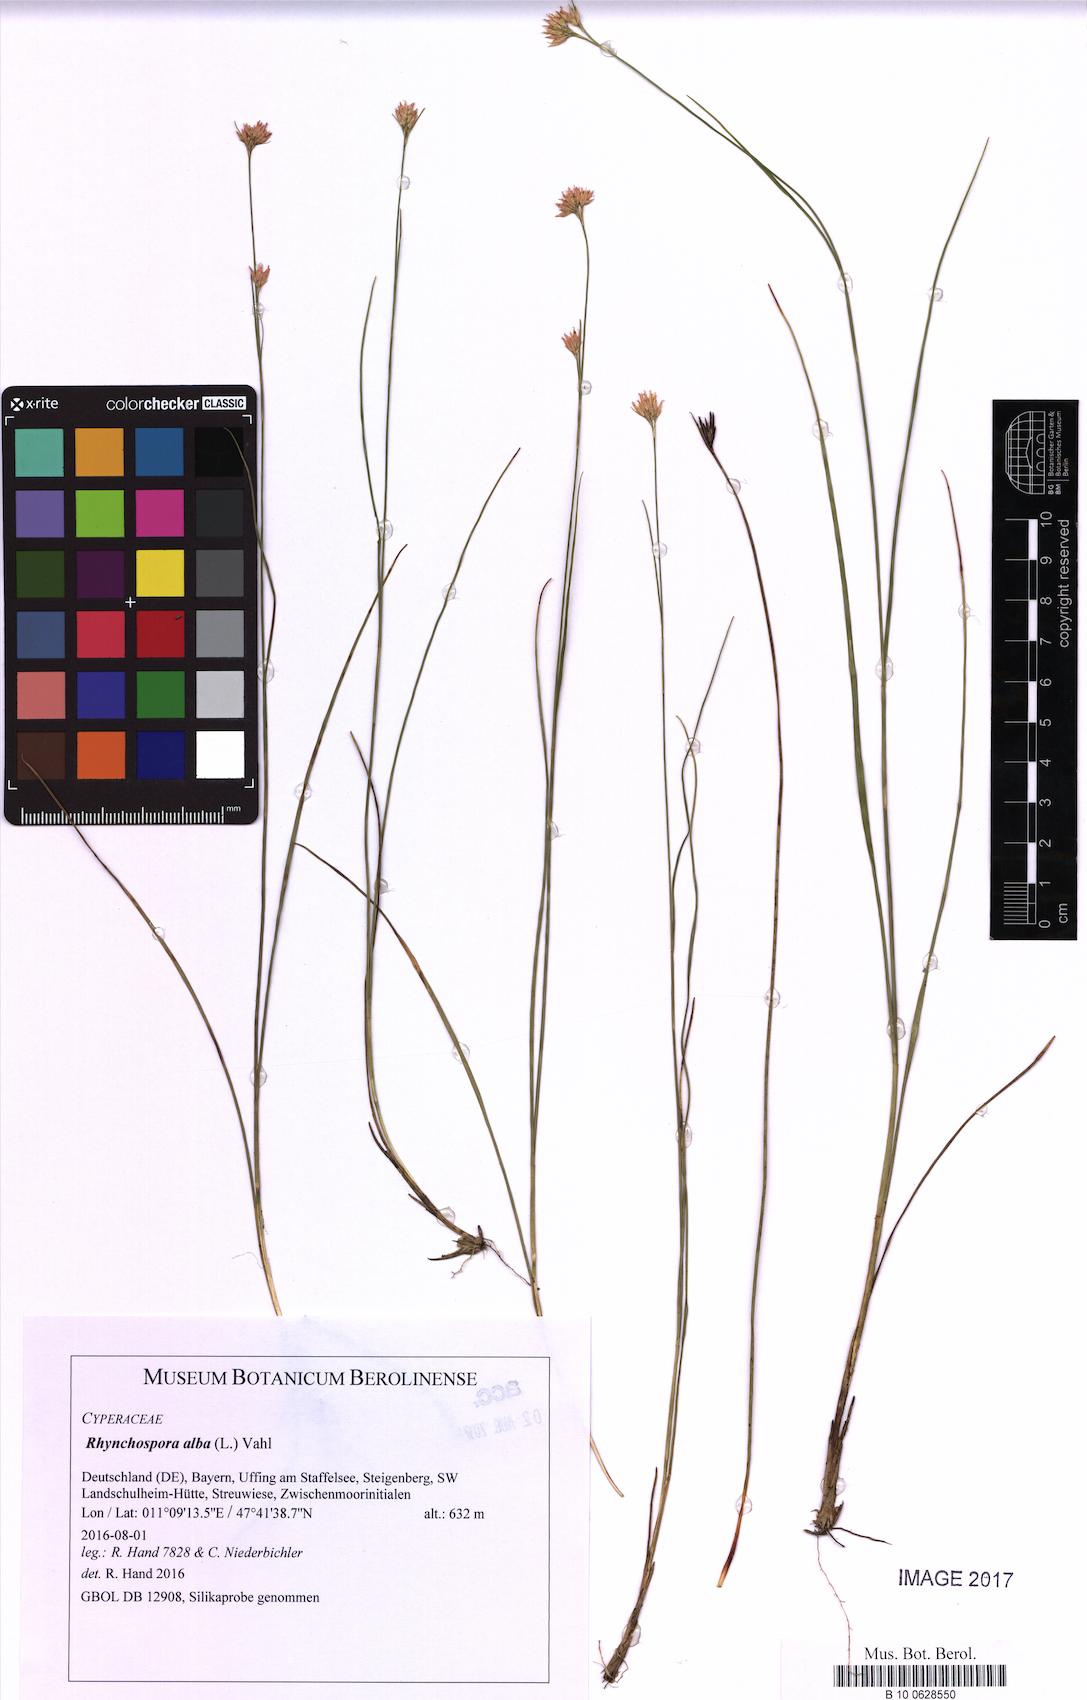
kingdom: Plantae
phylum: Tracheophyta
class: Liliopsida
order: Poales
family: Cyperaceae
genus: Rhynchospora
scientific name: Rhynchospora alba
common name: White beak-sedge
